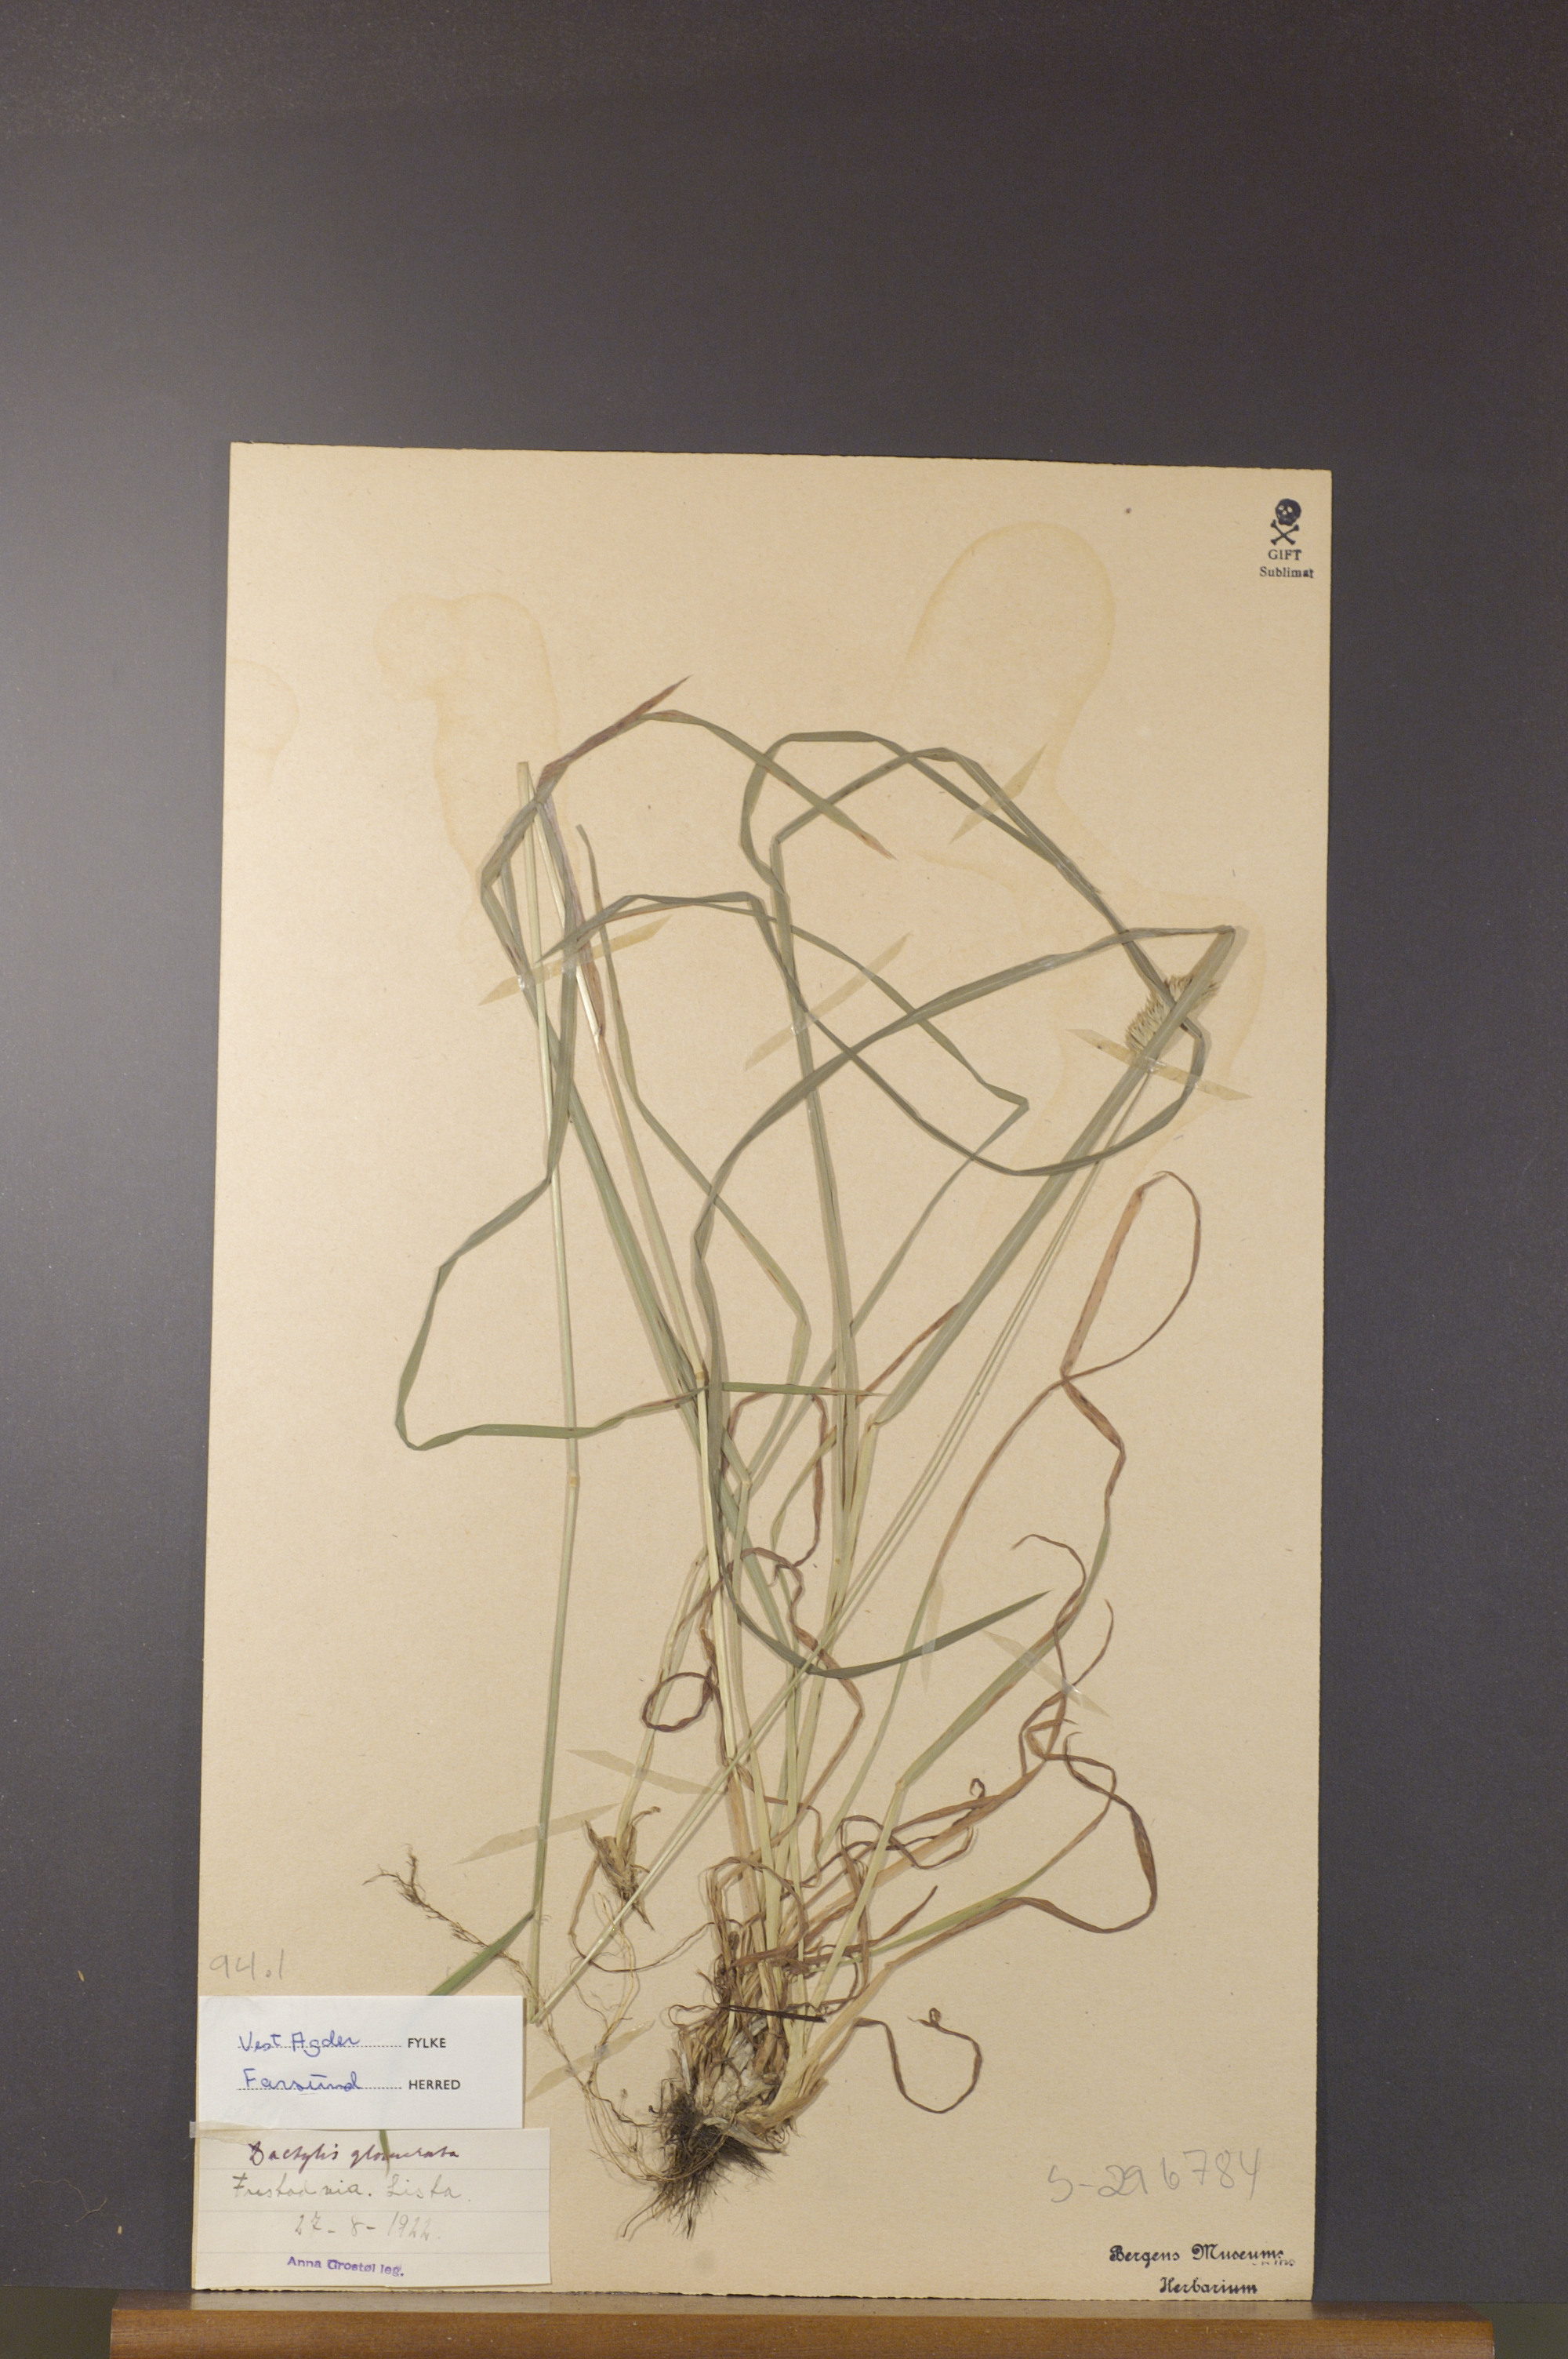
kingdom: Plantae
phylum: Tracheophyta
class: Liliopsida
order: Poales
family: Poaceae
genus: Dactylis
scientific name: Dactylis glomerata
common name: Orchardgrass
